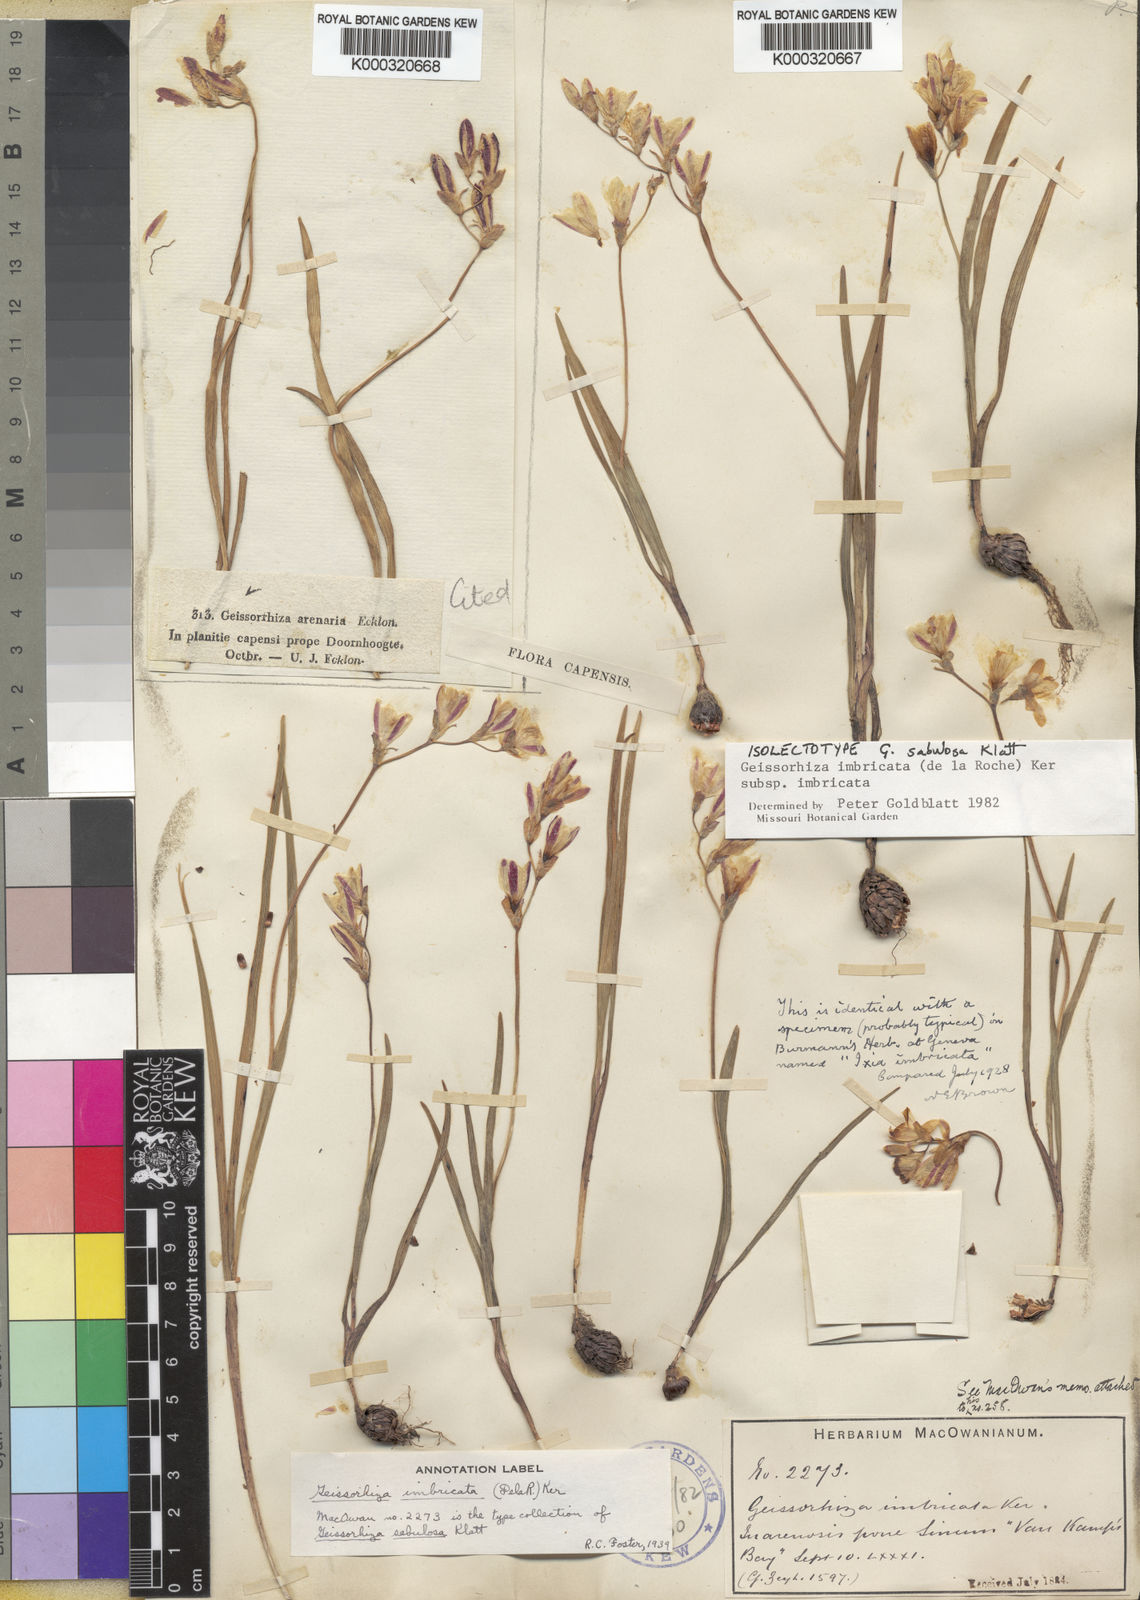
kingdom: Plantae
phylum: Tracheophyta
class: Liliopsida
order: Asparagales
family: Iridaceae
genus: Geissorhiza
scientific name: Geissorhiza imbricata
